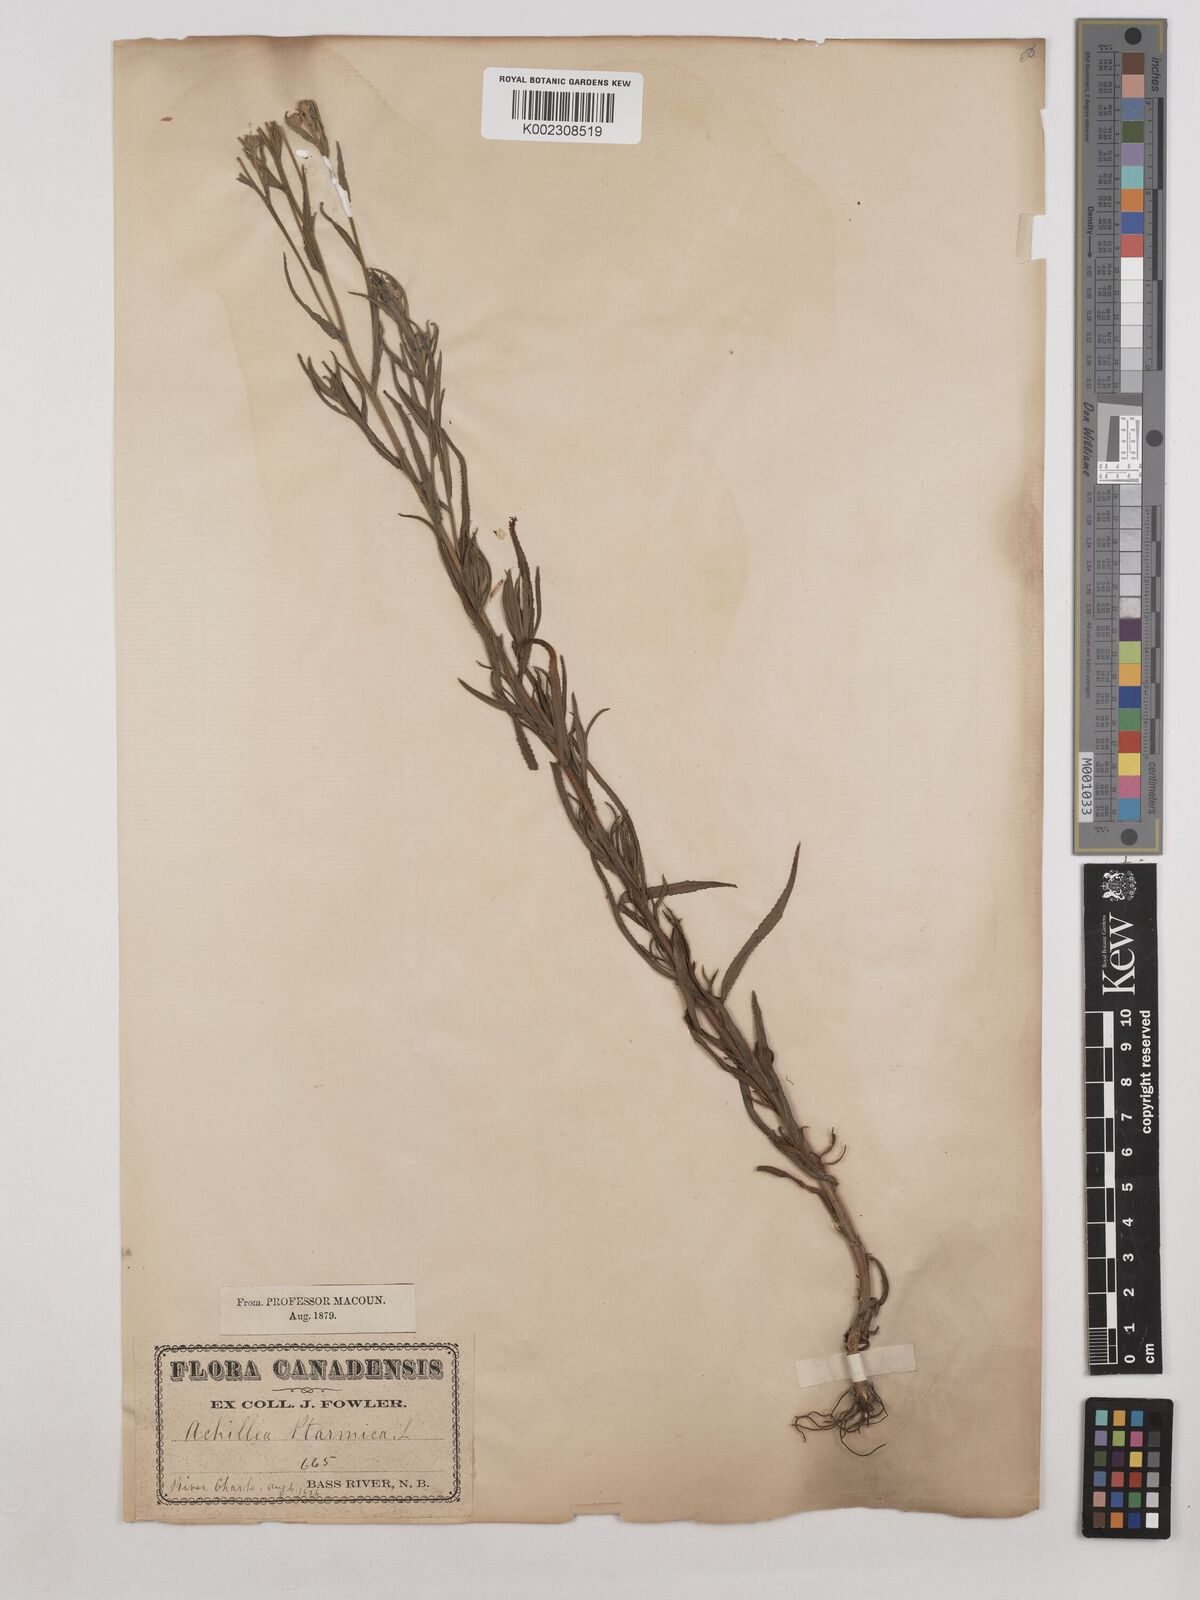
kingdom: Plantae
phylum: Tracheophyta
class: Magnoliopsida
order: Asterales
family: Asteraceae
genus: Achillea
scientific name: Achillea ptarmica
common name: Sneezeweed
